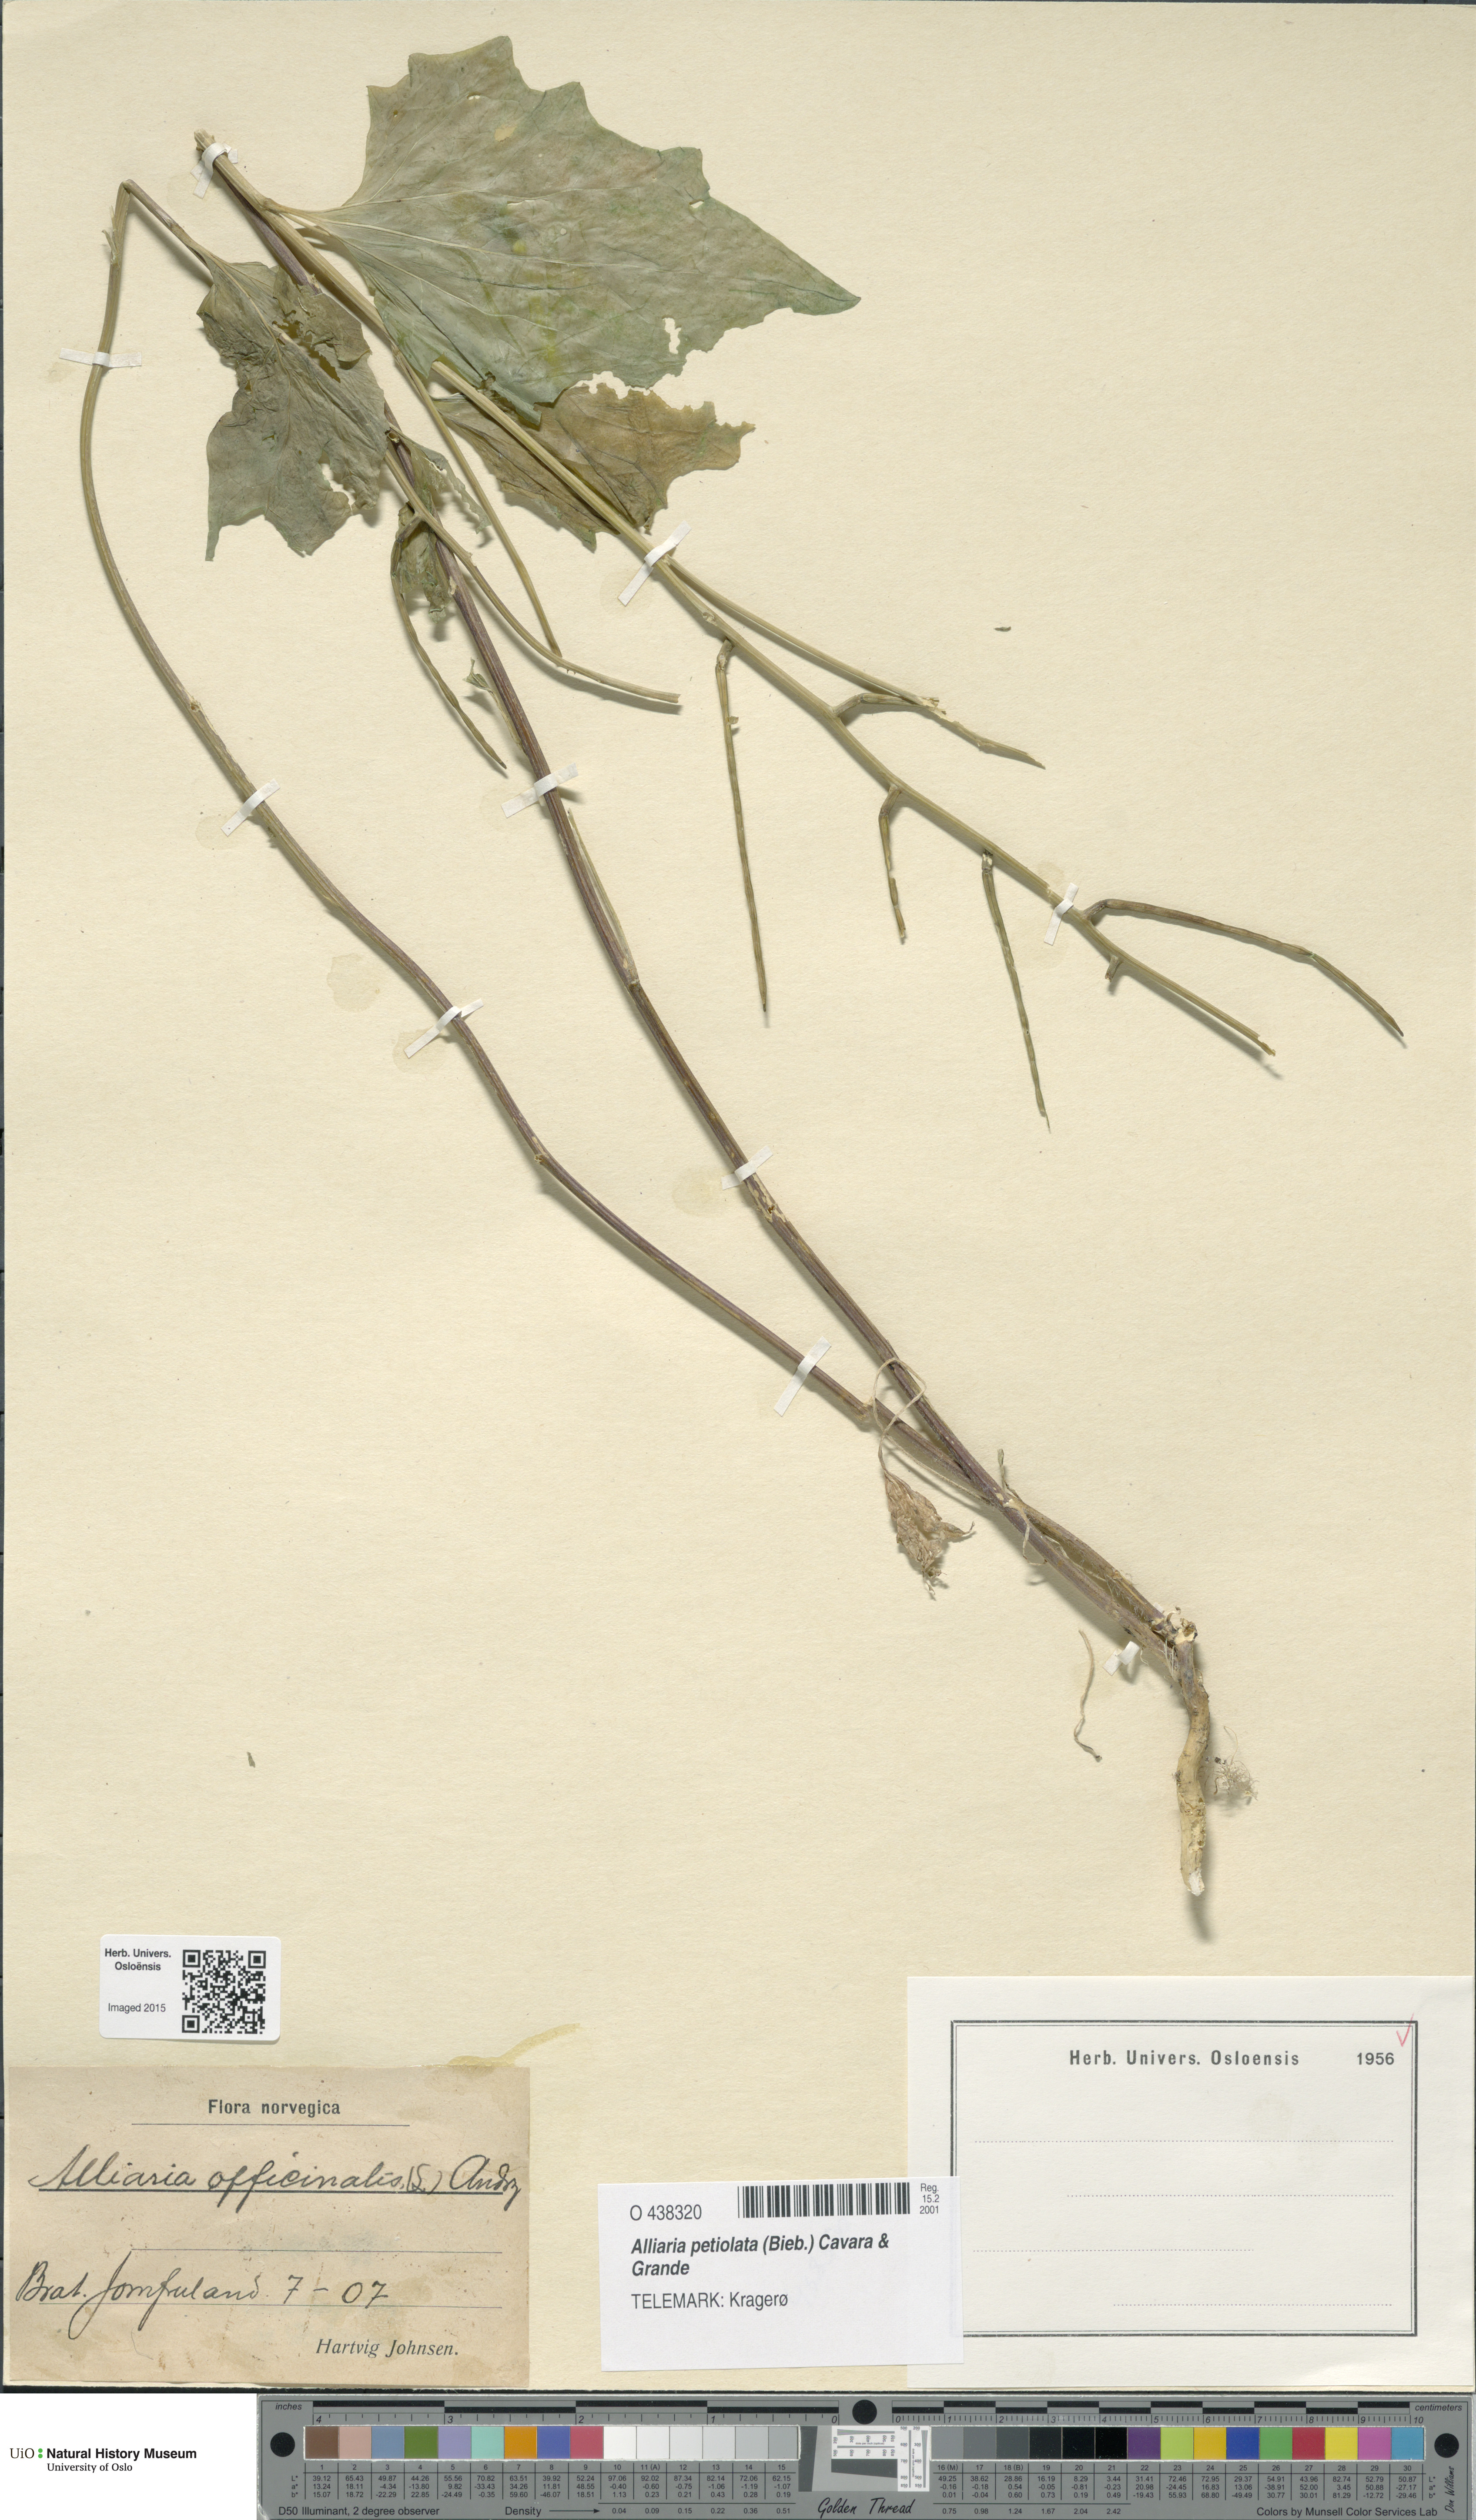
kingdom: Plantae
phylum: Tracheophyta
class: Magnoliopsida
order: Brassicales
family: Brassicaceae
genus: Alliaria
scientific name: Alliaria petiolata
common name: Garlic mustard
